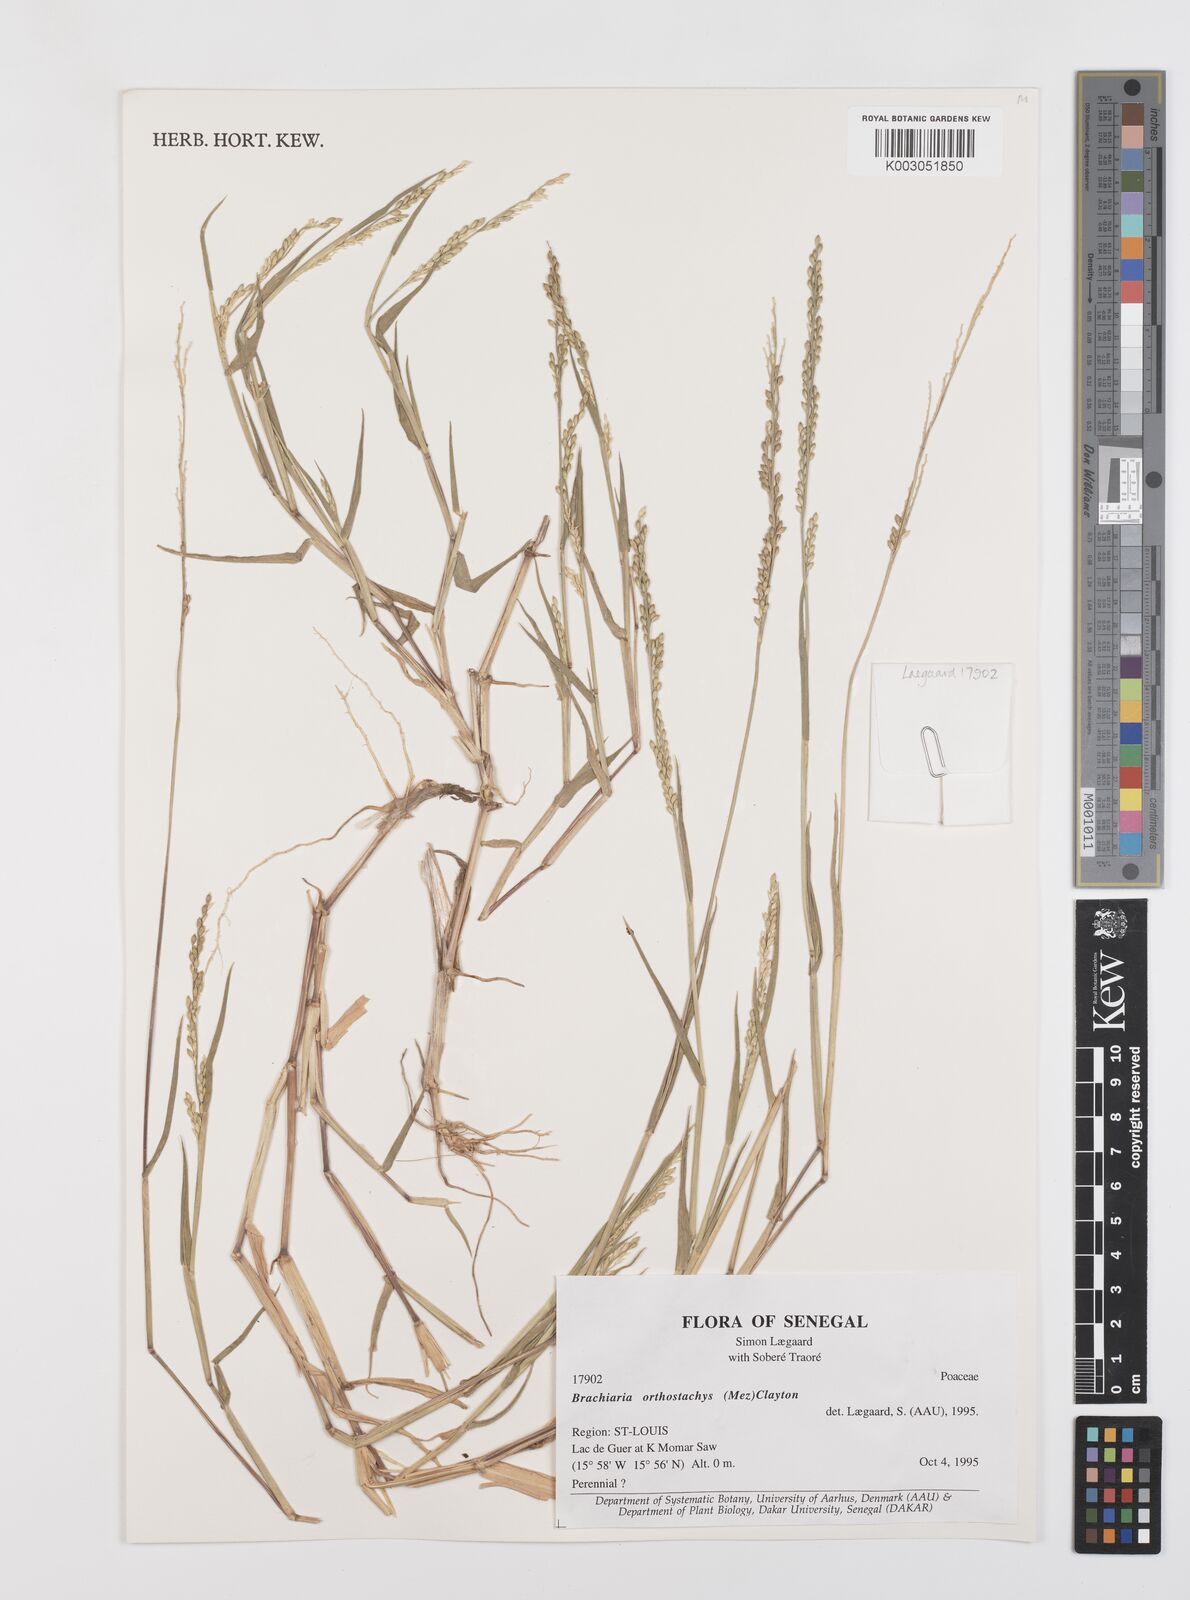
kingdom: Plantae
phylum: Tracheophyta
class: Liliopsida
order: Poales
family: Poaceae
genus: Urochloa
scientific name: Urochloa orthostachys
